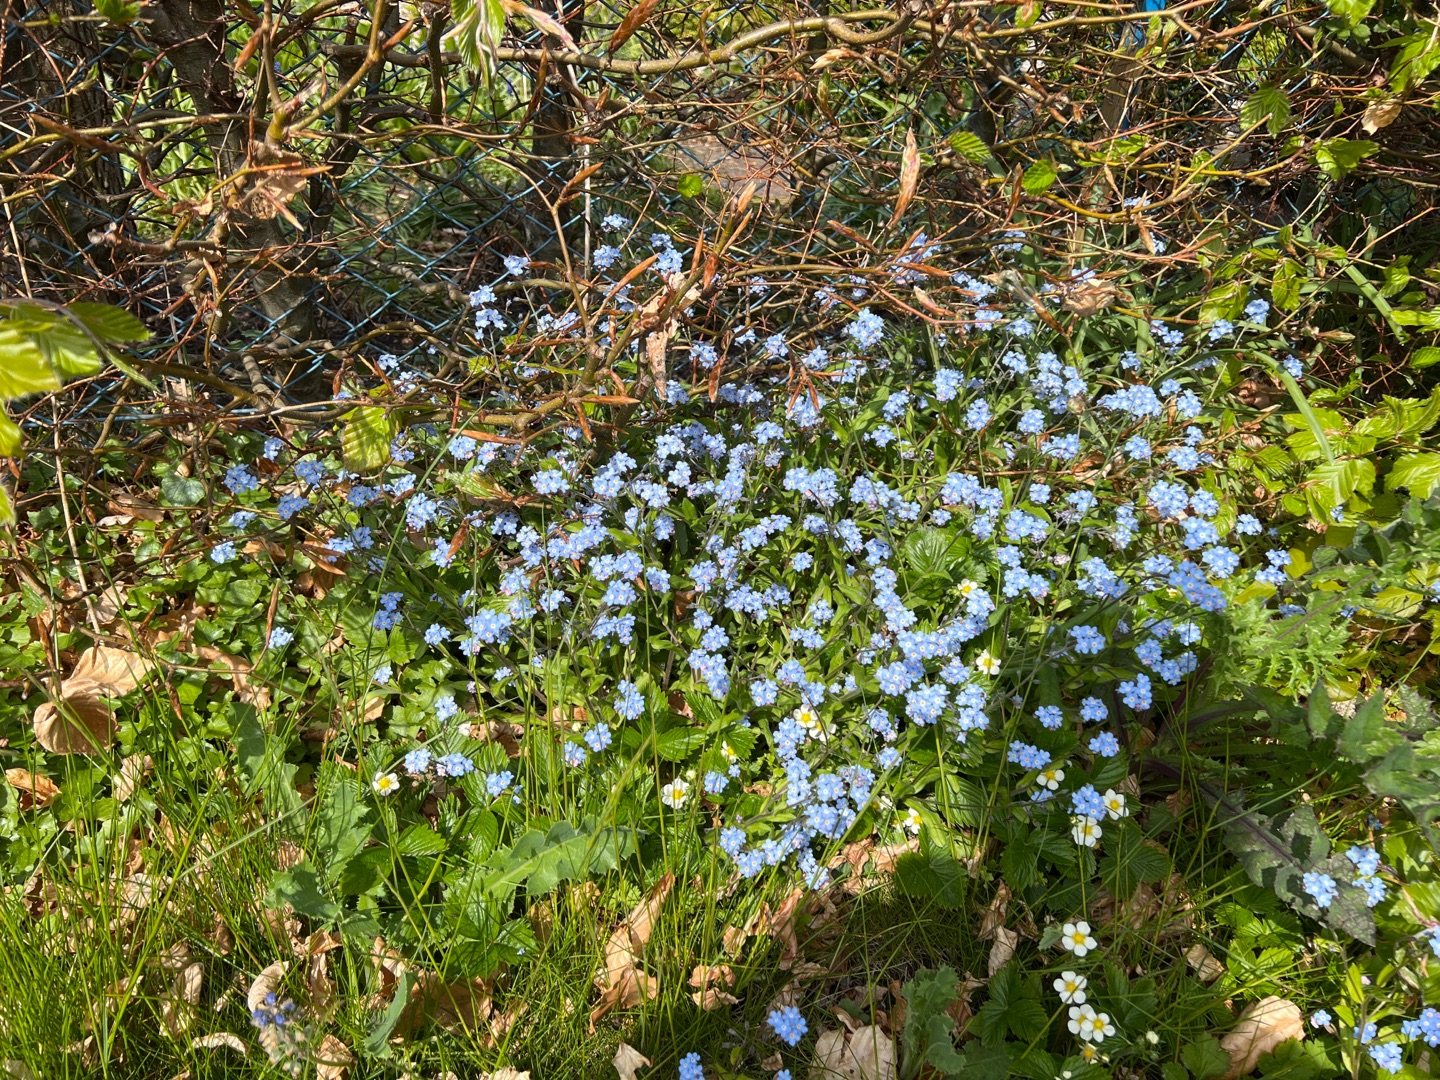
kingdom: Plantae
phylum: Tracheophyta
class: Magnoliopsida
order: Boraginales
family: Boraginaceae
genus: Myosotis
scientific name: Myosotis sylvatica
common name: Skov-forglemmigej
